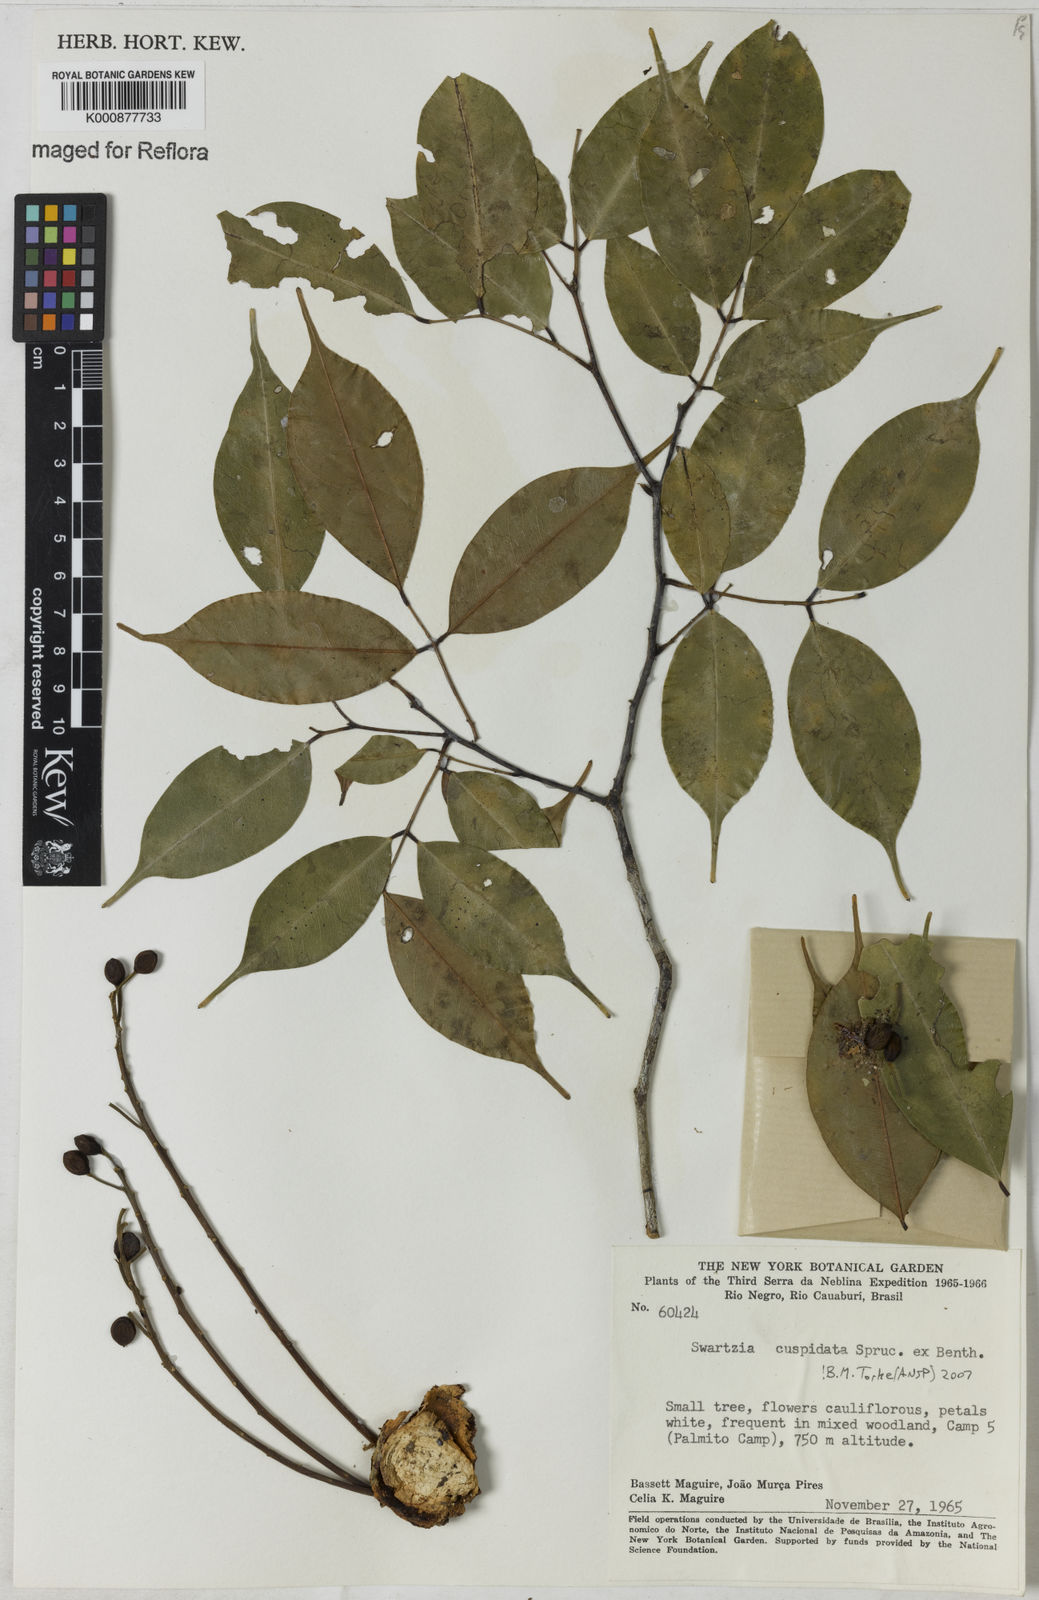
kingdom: Plantae
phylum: Tracheophyta
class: Magnoliopsida
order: Fabales
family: Fabaceae
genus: Swartzia
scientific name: Swartzia
